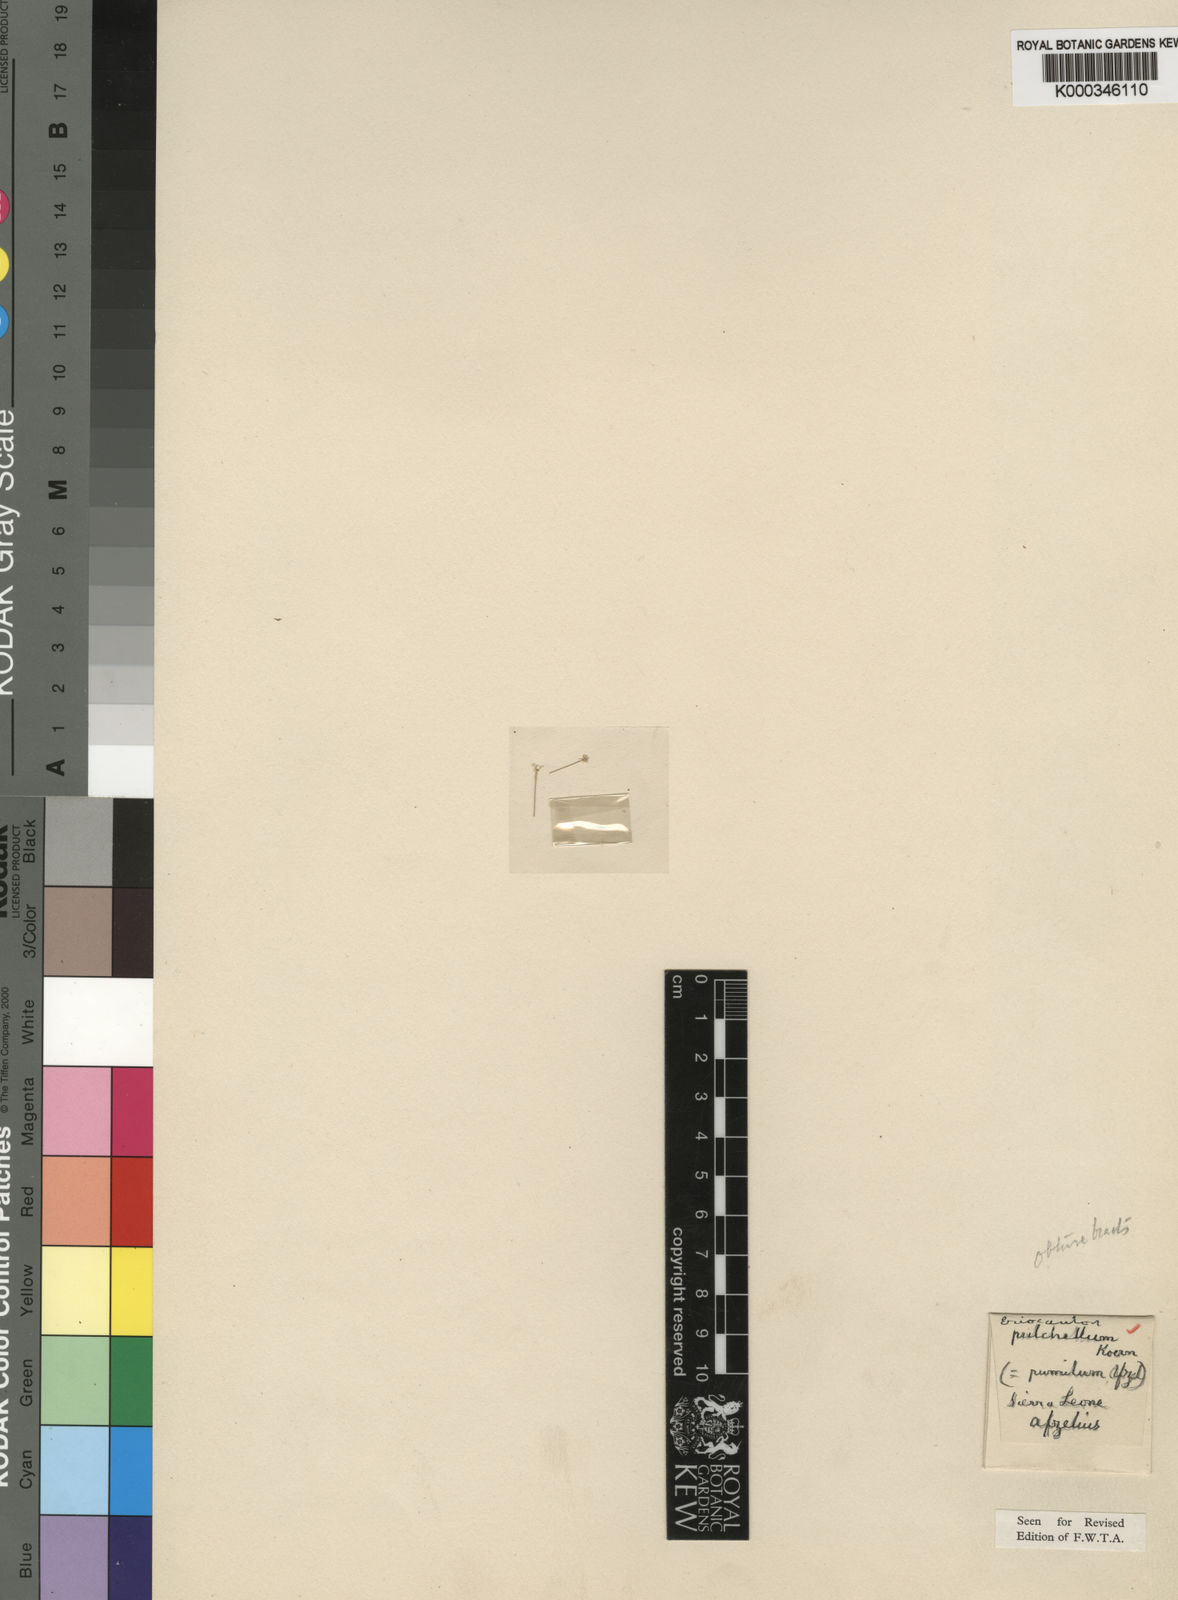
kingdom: Plantae
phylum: Tracheophyta
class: Liliopsida
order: Poales
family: Eriocaulaceae
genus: Eriocaulon
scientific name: Eriocaulon
